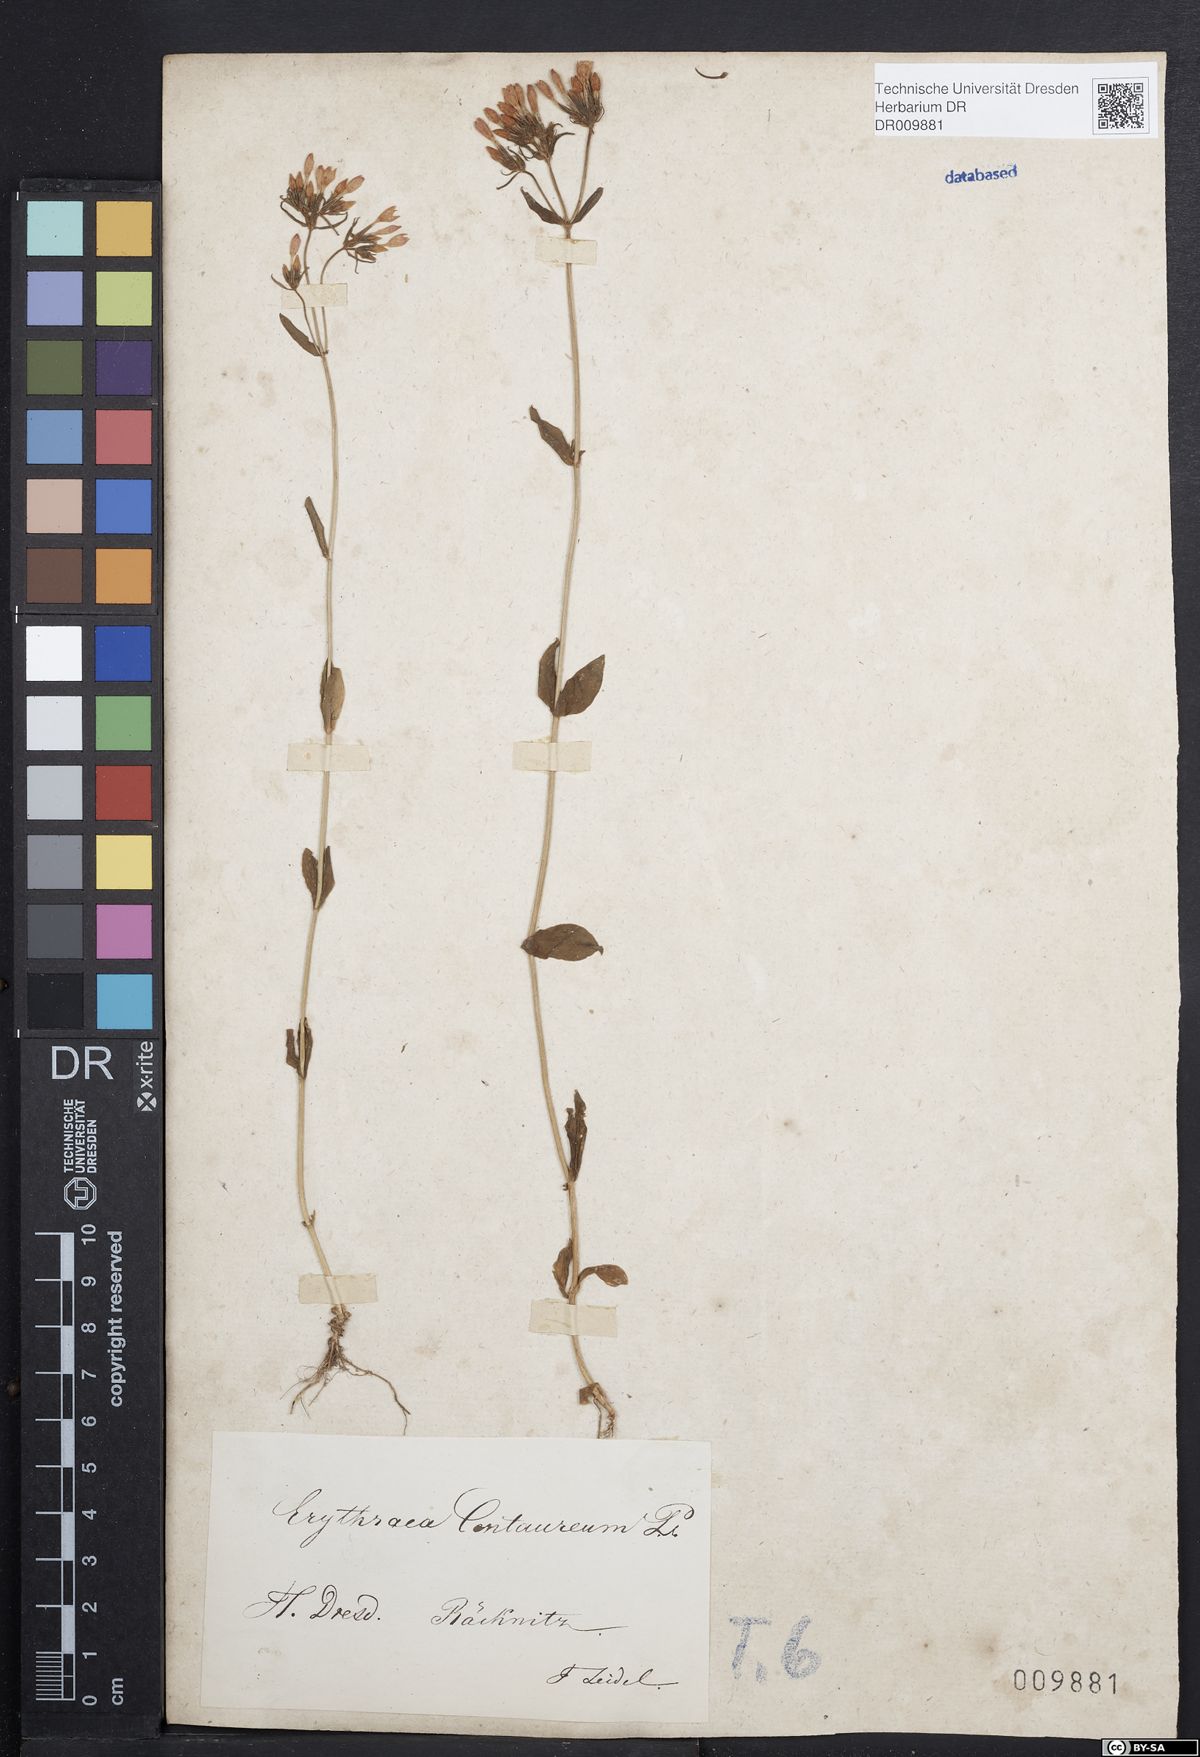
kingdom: Plantae
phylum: Tracheophyta
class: Magnoliopsida
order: Gentianales
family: Gentianaceae
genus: Centaurium
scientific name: Centaurium erythraea
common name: Common centaury
